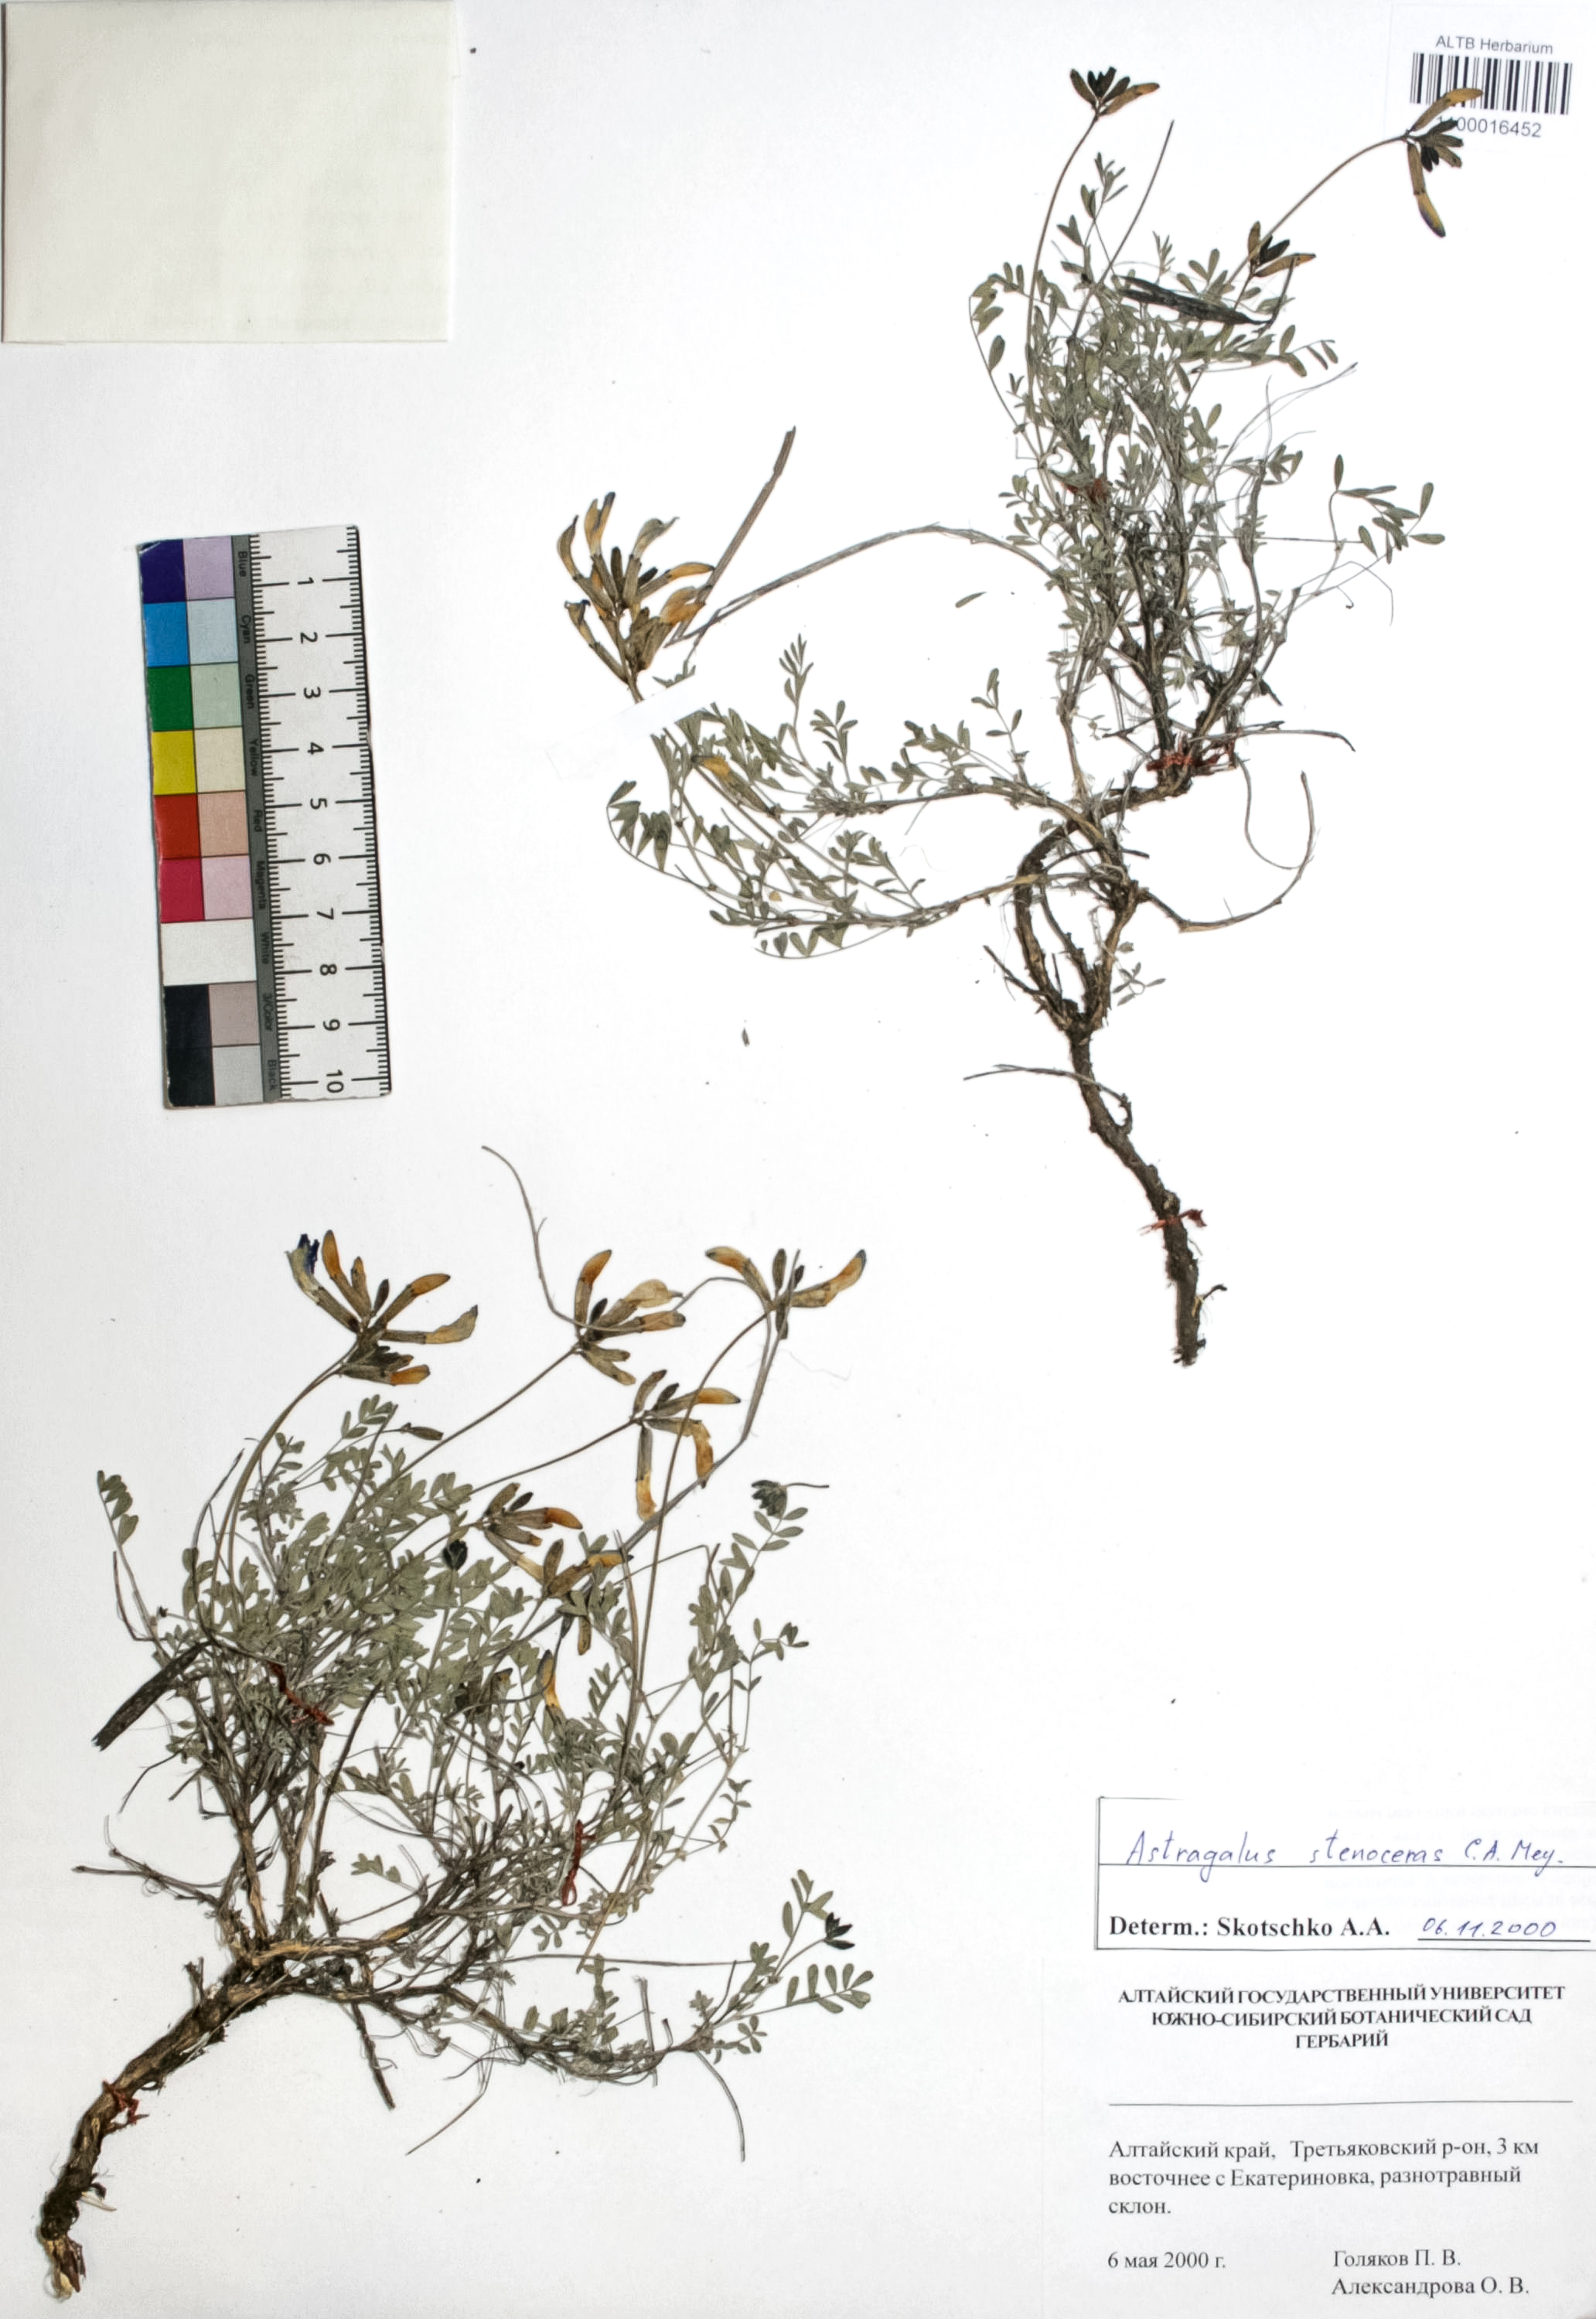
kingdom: Plantae
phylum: Tracheophyta
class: Magnoliopsida
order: Fabales
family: Fabaceae
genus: Astragalus
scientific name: Astragalus stenoceras
